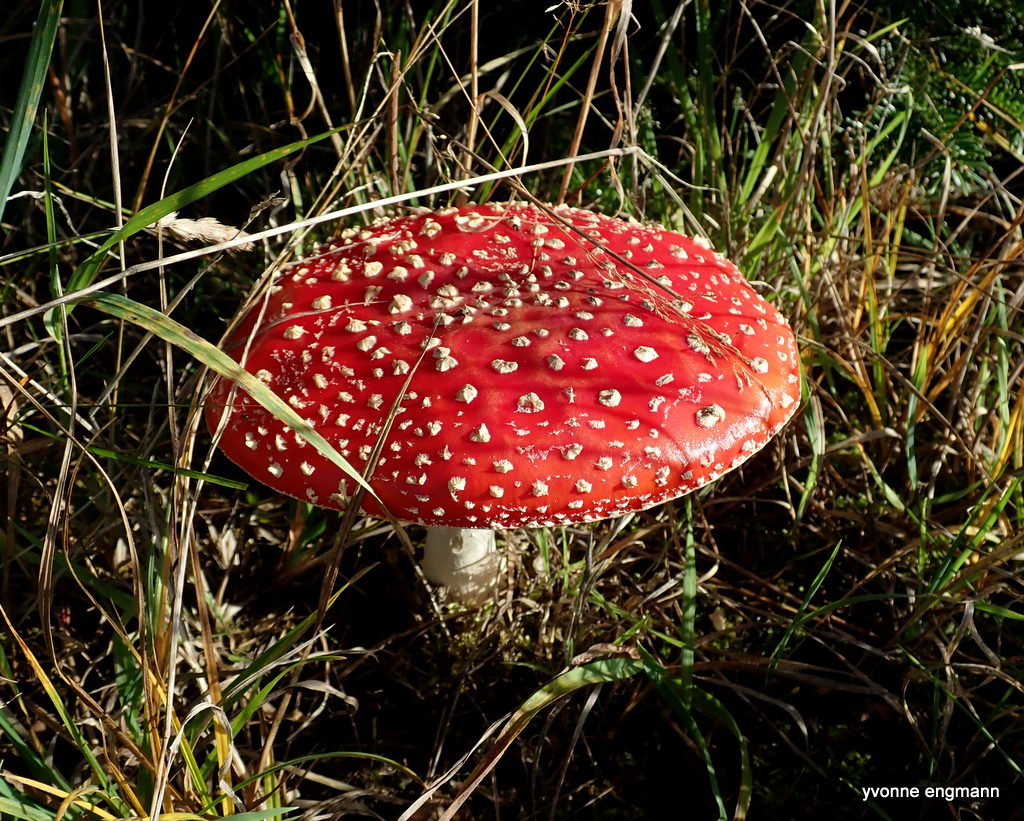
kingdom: Fungi
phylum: Basidiomycota
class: Agaricomycetes
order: Agaricales
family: Amanitaceae
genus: Amanita
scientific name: Amanita muscaria
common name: rød fluesvamp
